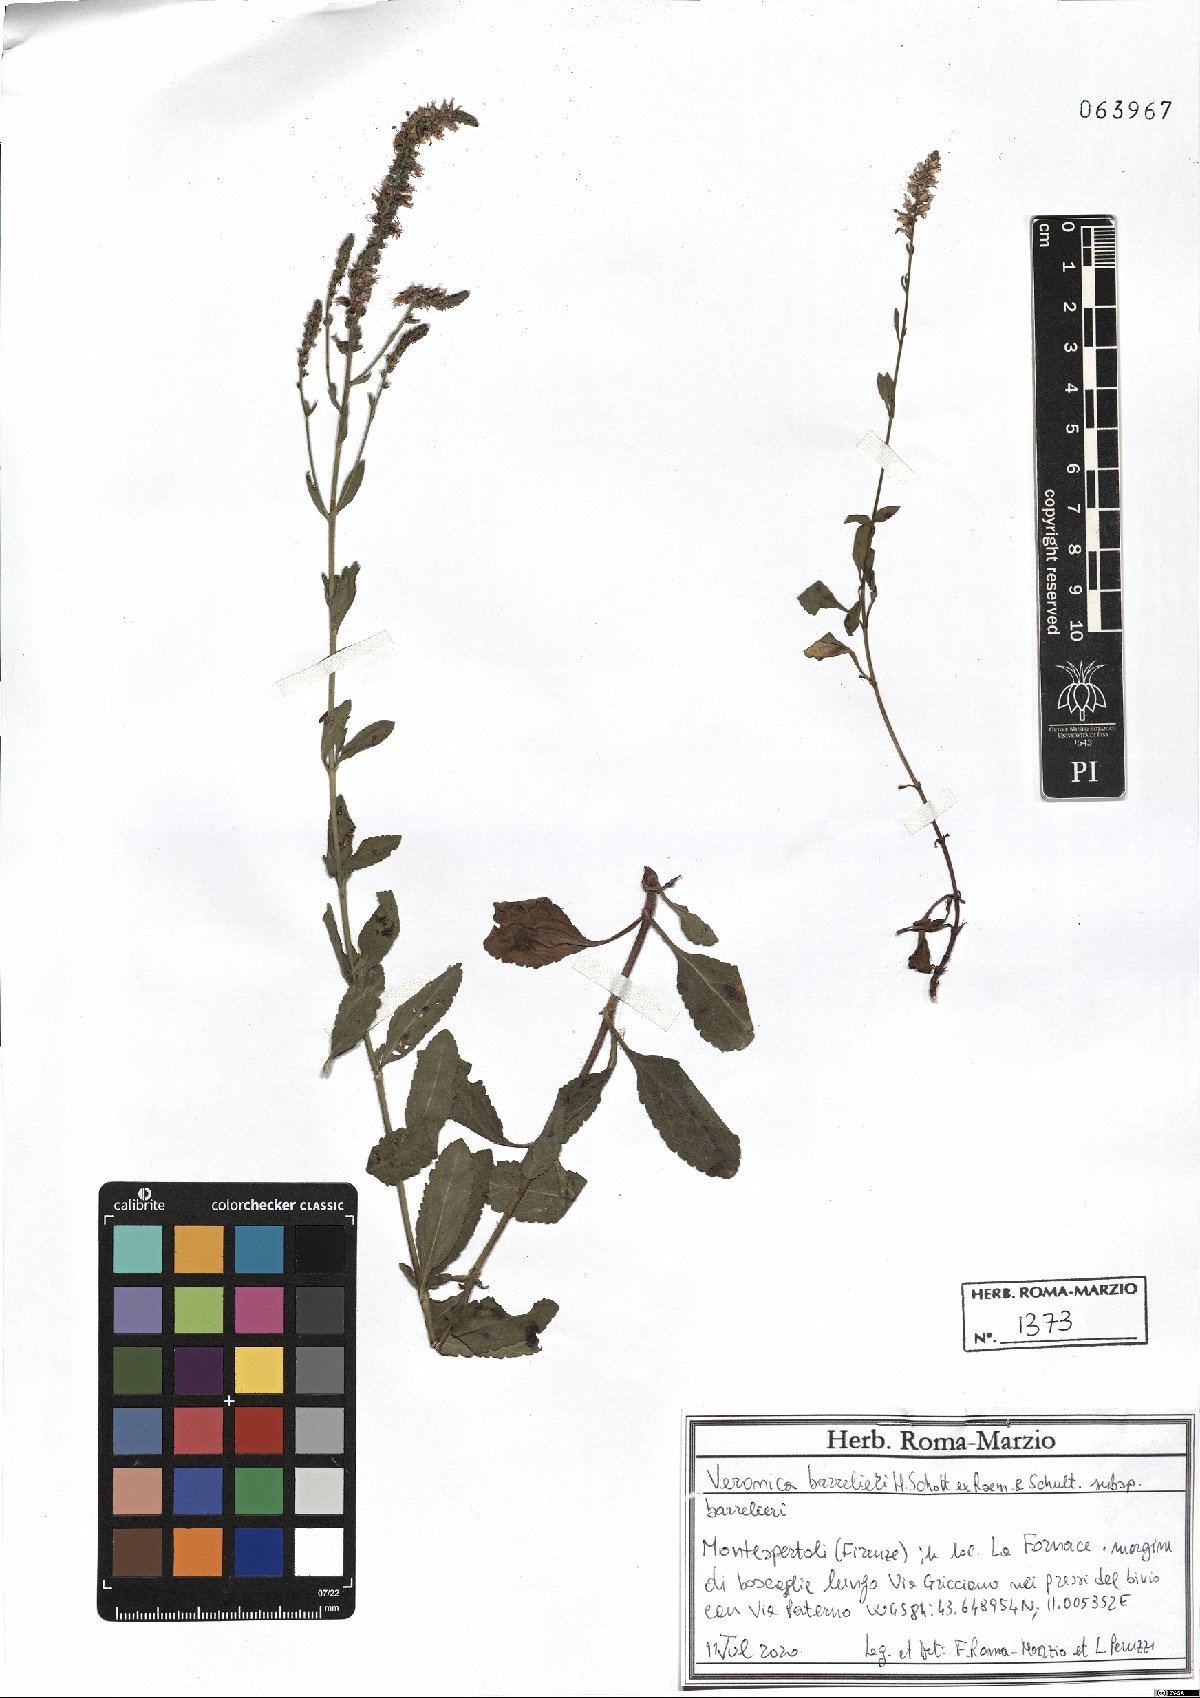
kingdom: Plantae
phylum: Tracheophyta
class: Magnoliopsida
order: Lamiales
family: Plantaginaceae
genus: Veronica
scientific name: Veronica barrelieri
